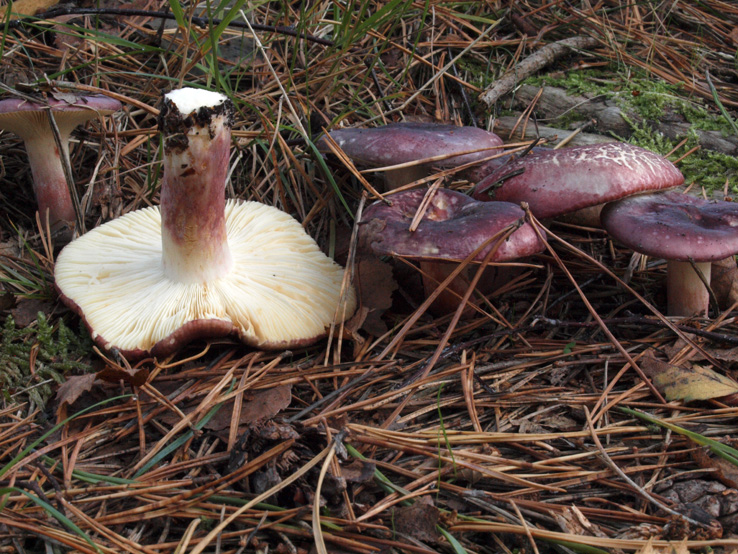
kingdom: Fungi
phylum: Basidiomycota
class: Agaricomycetes
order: Russulales
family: Russulaceae
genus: Russula
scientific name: Russula sardonia
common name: citronbladet skørhat
